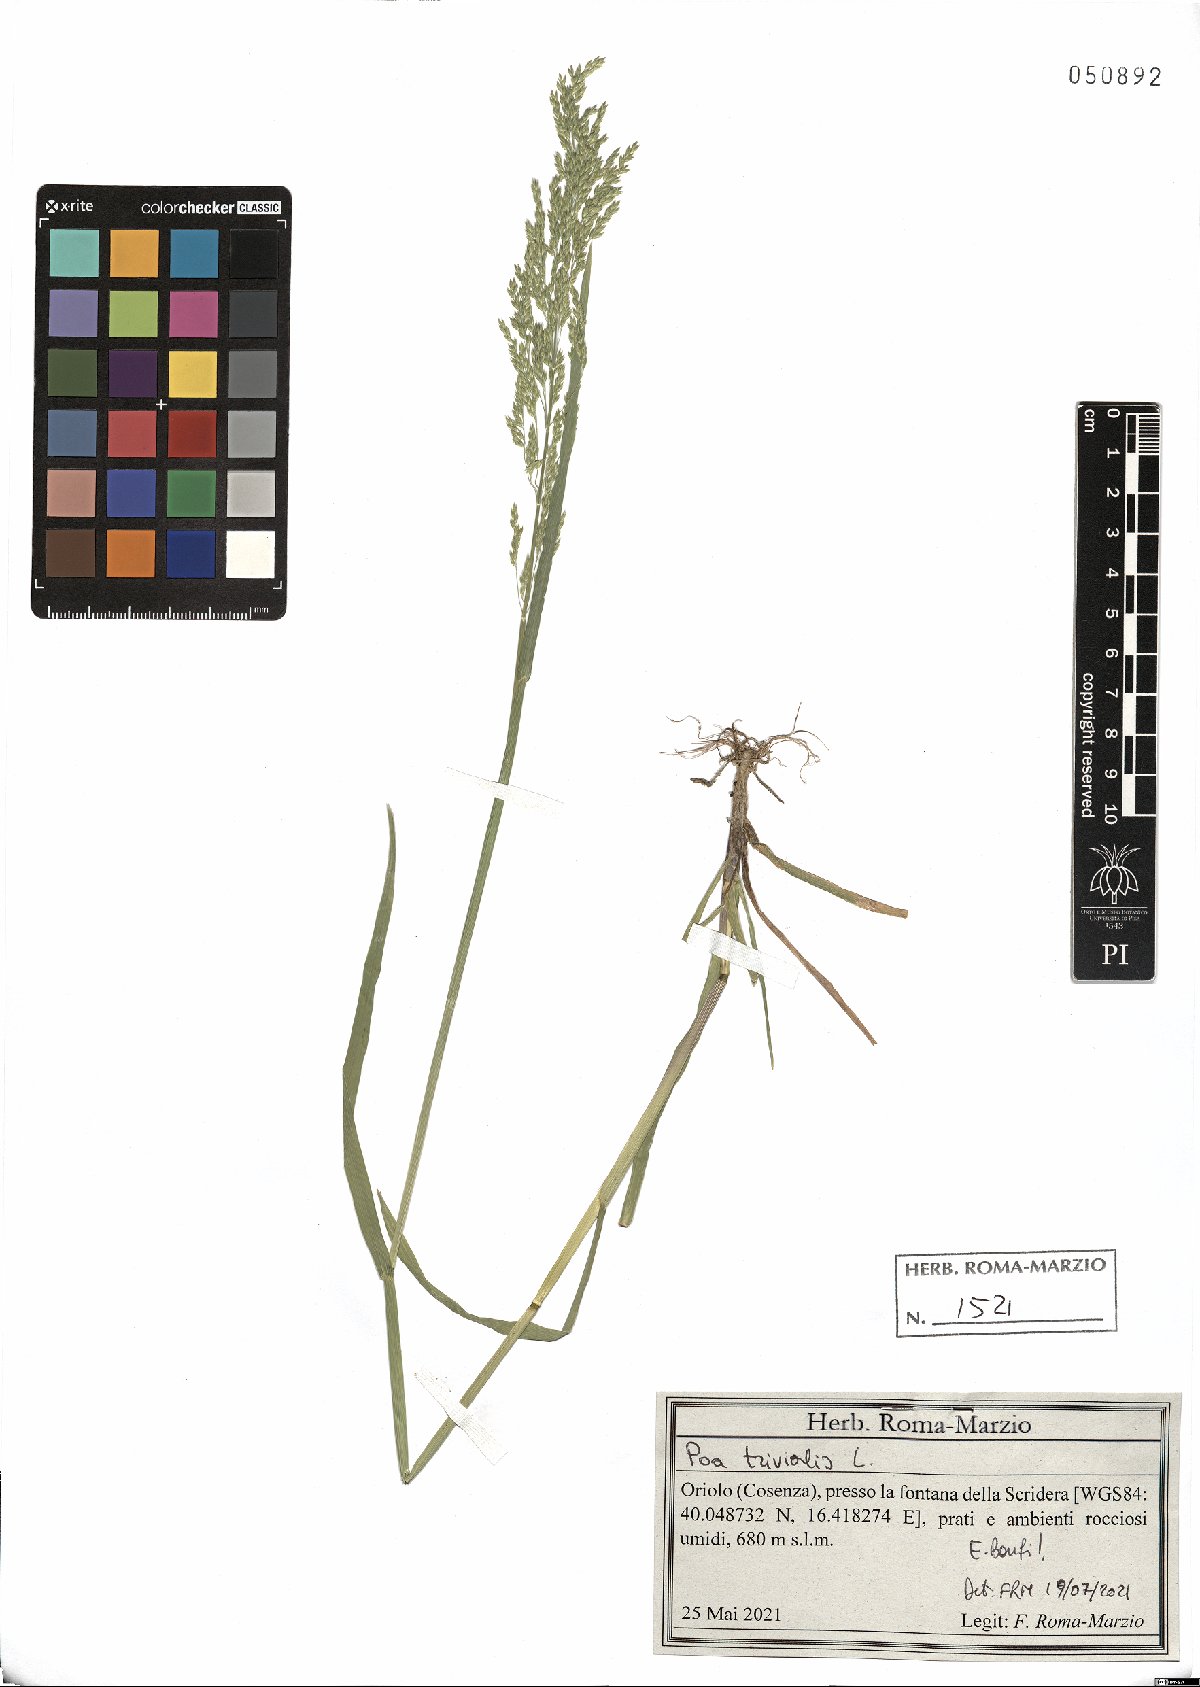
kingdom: Plantae
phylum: Tracheophyta
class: Liliopsida
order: Poales
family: Poaceae
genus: Poa
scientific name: Poa trivialis
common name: Rough bluegrass
